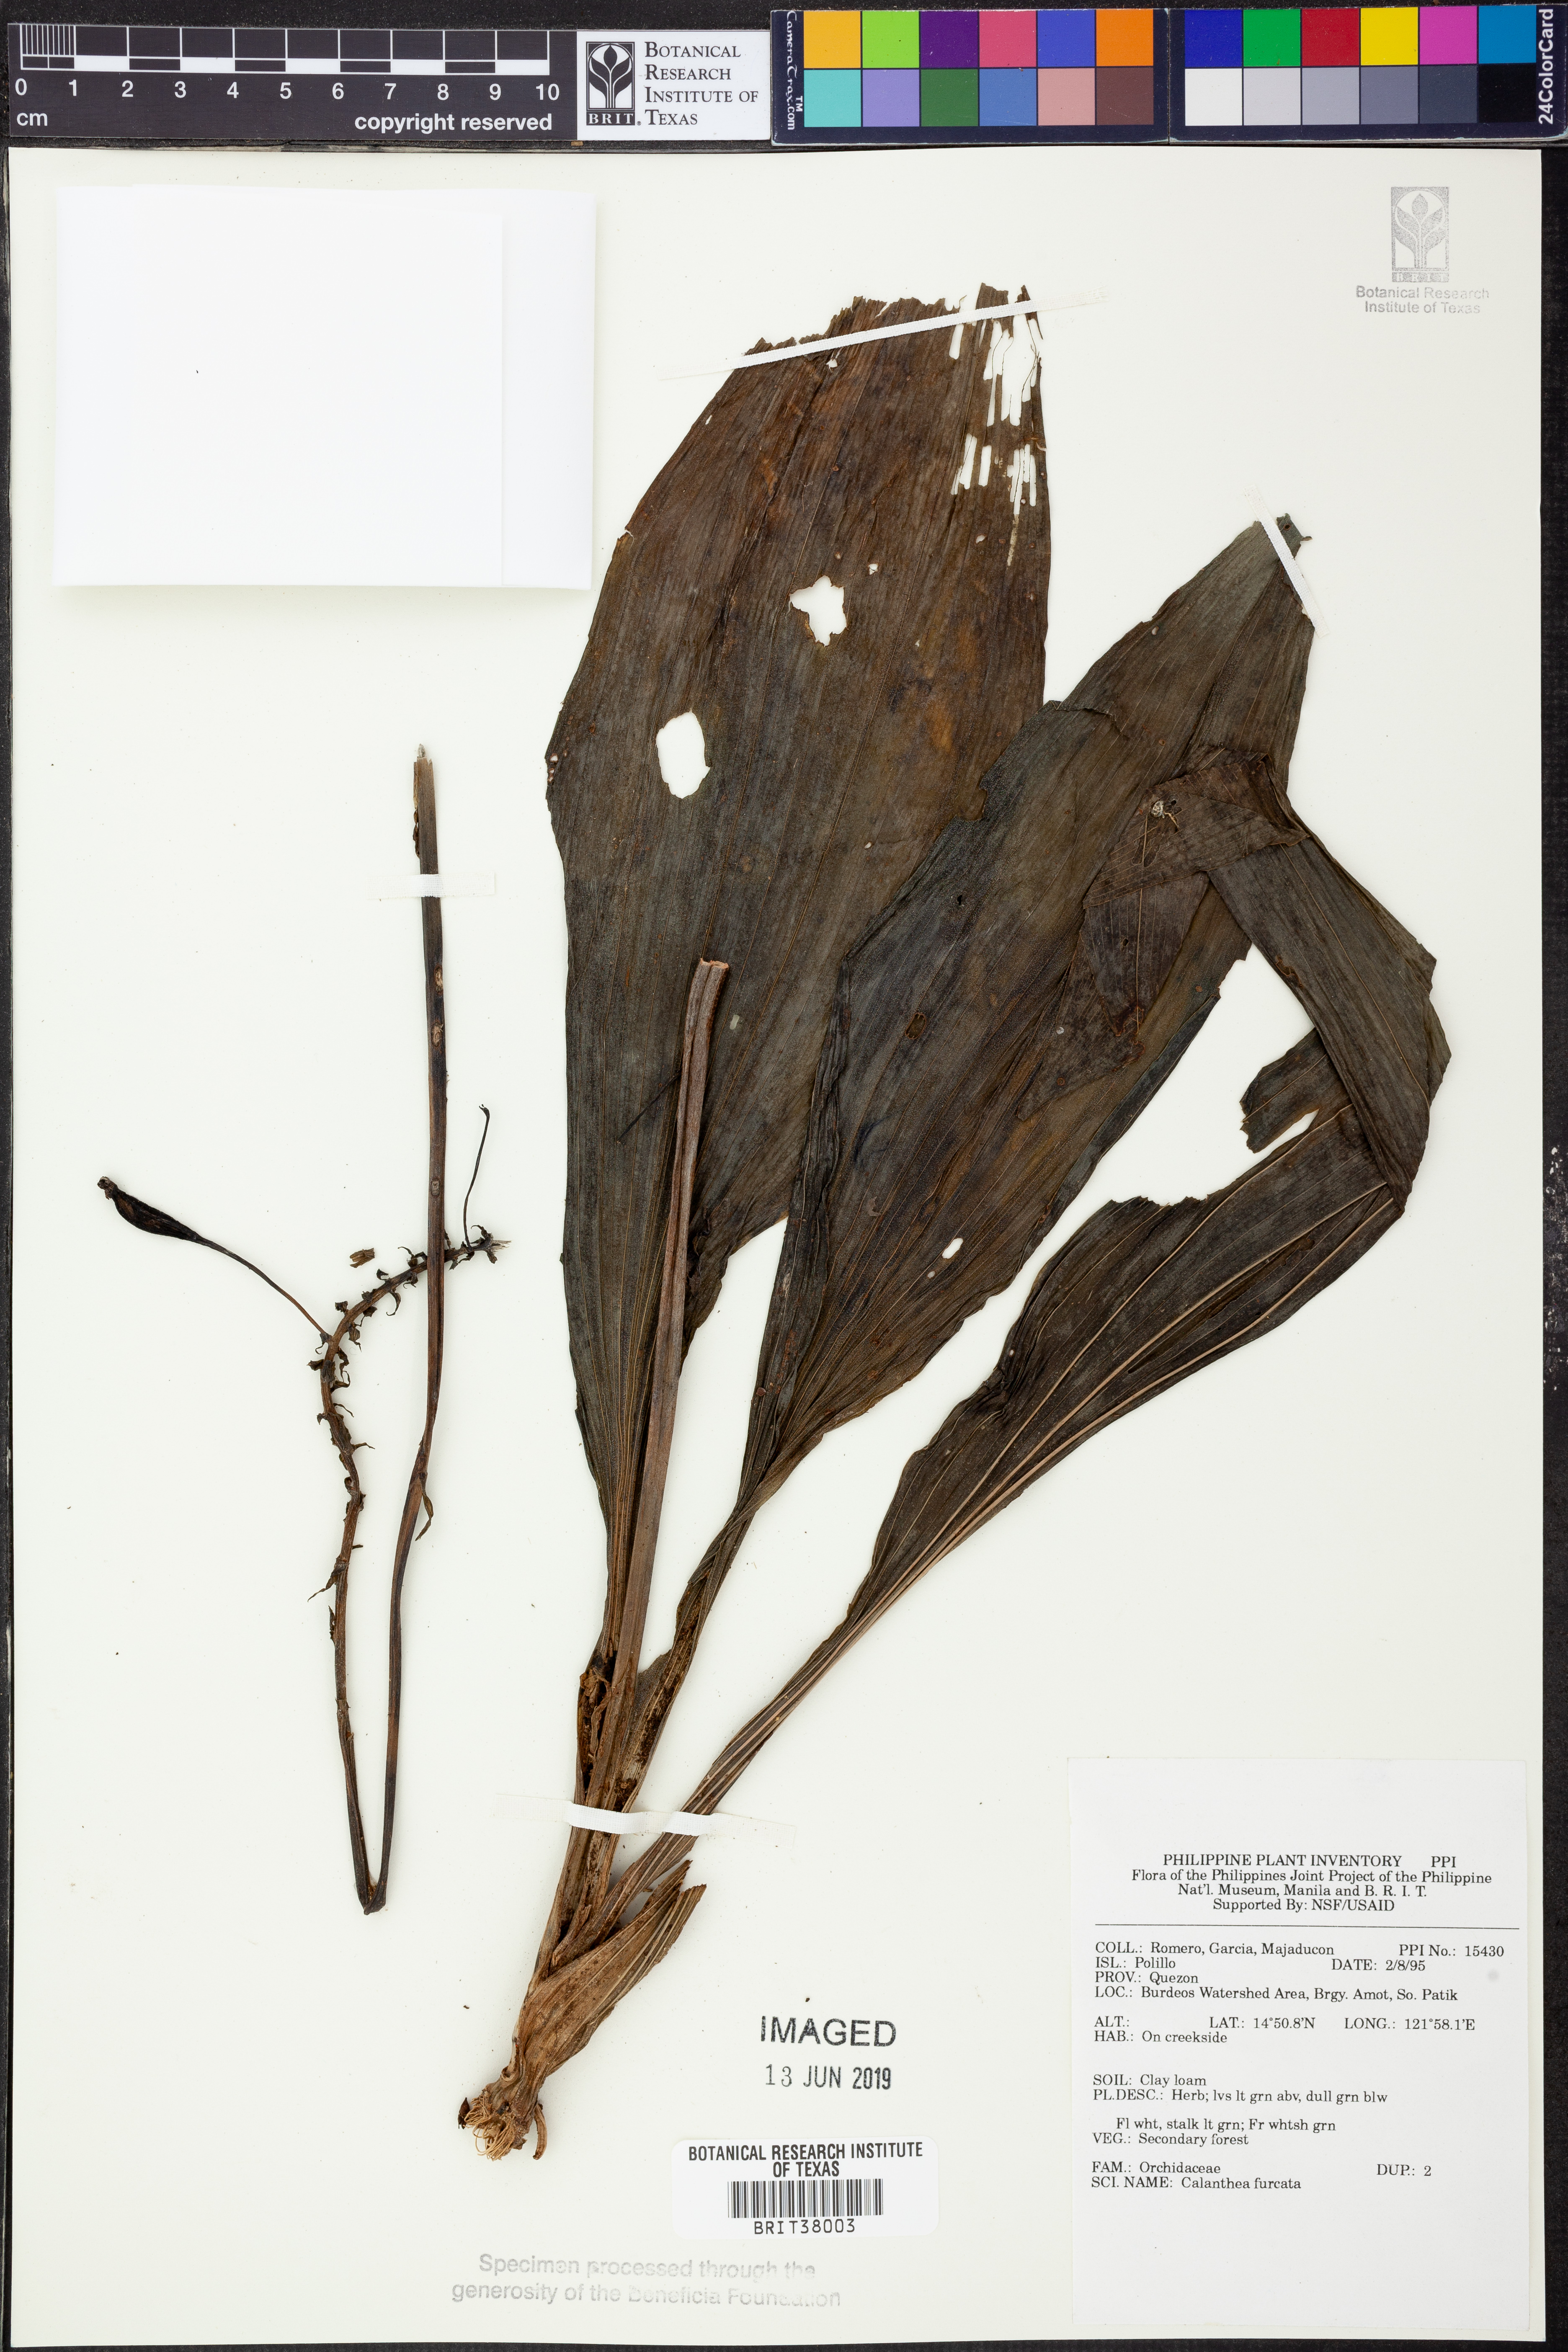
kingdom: Plantae
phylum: Tracheophyta
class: Liliopsida
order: Asparagales
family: Orchidaceae
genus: Calanthe
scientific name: Calanthe triplicata
